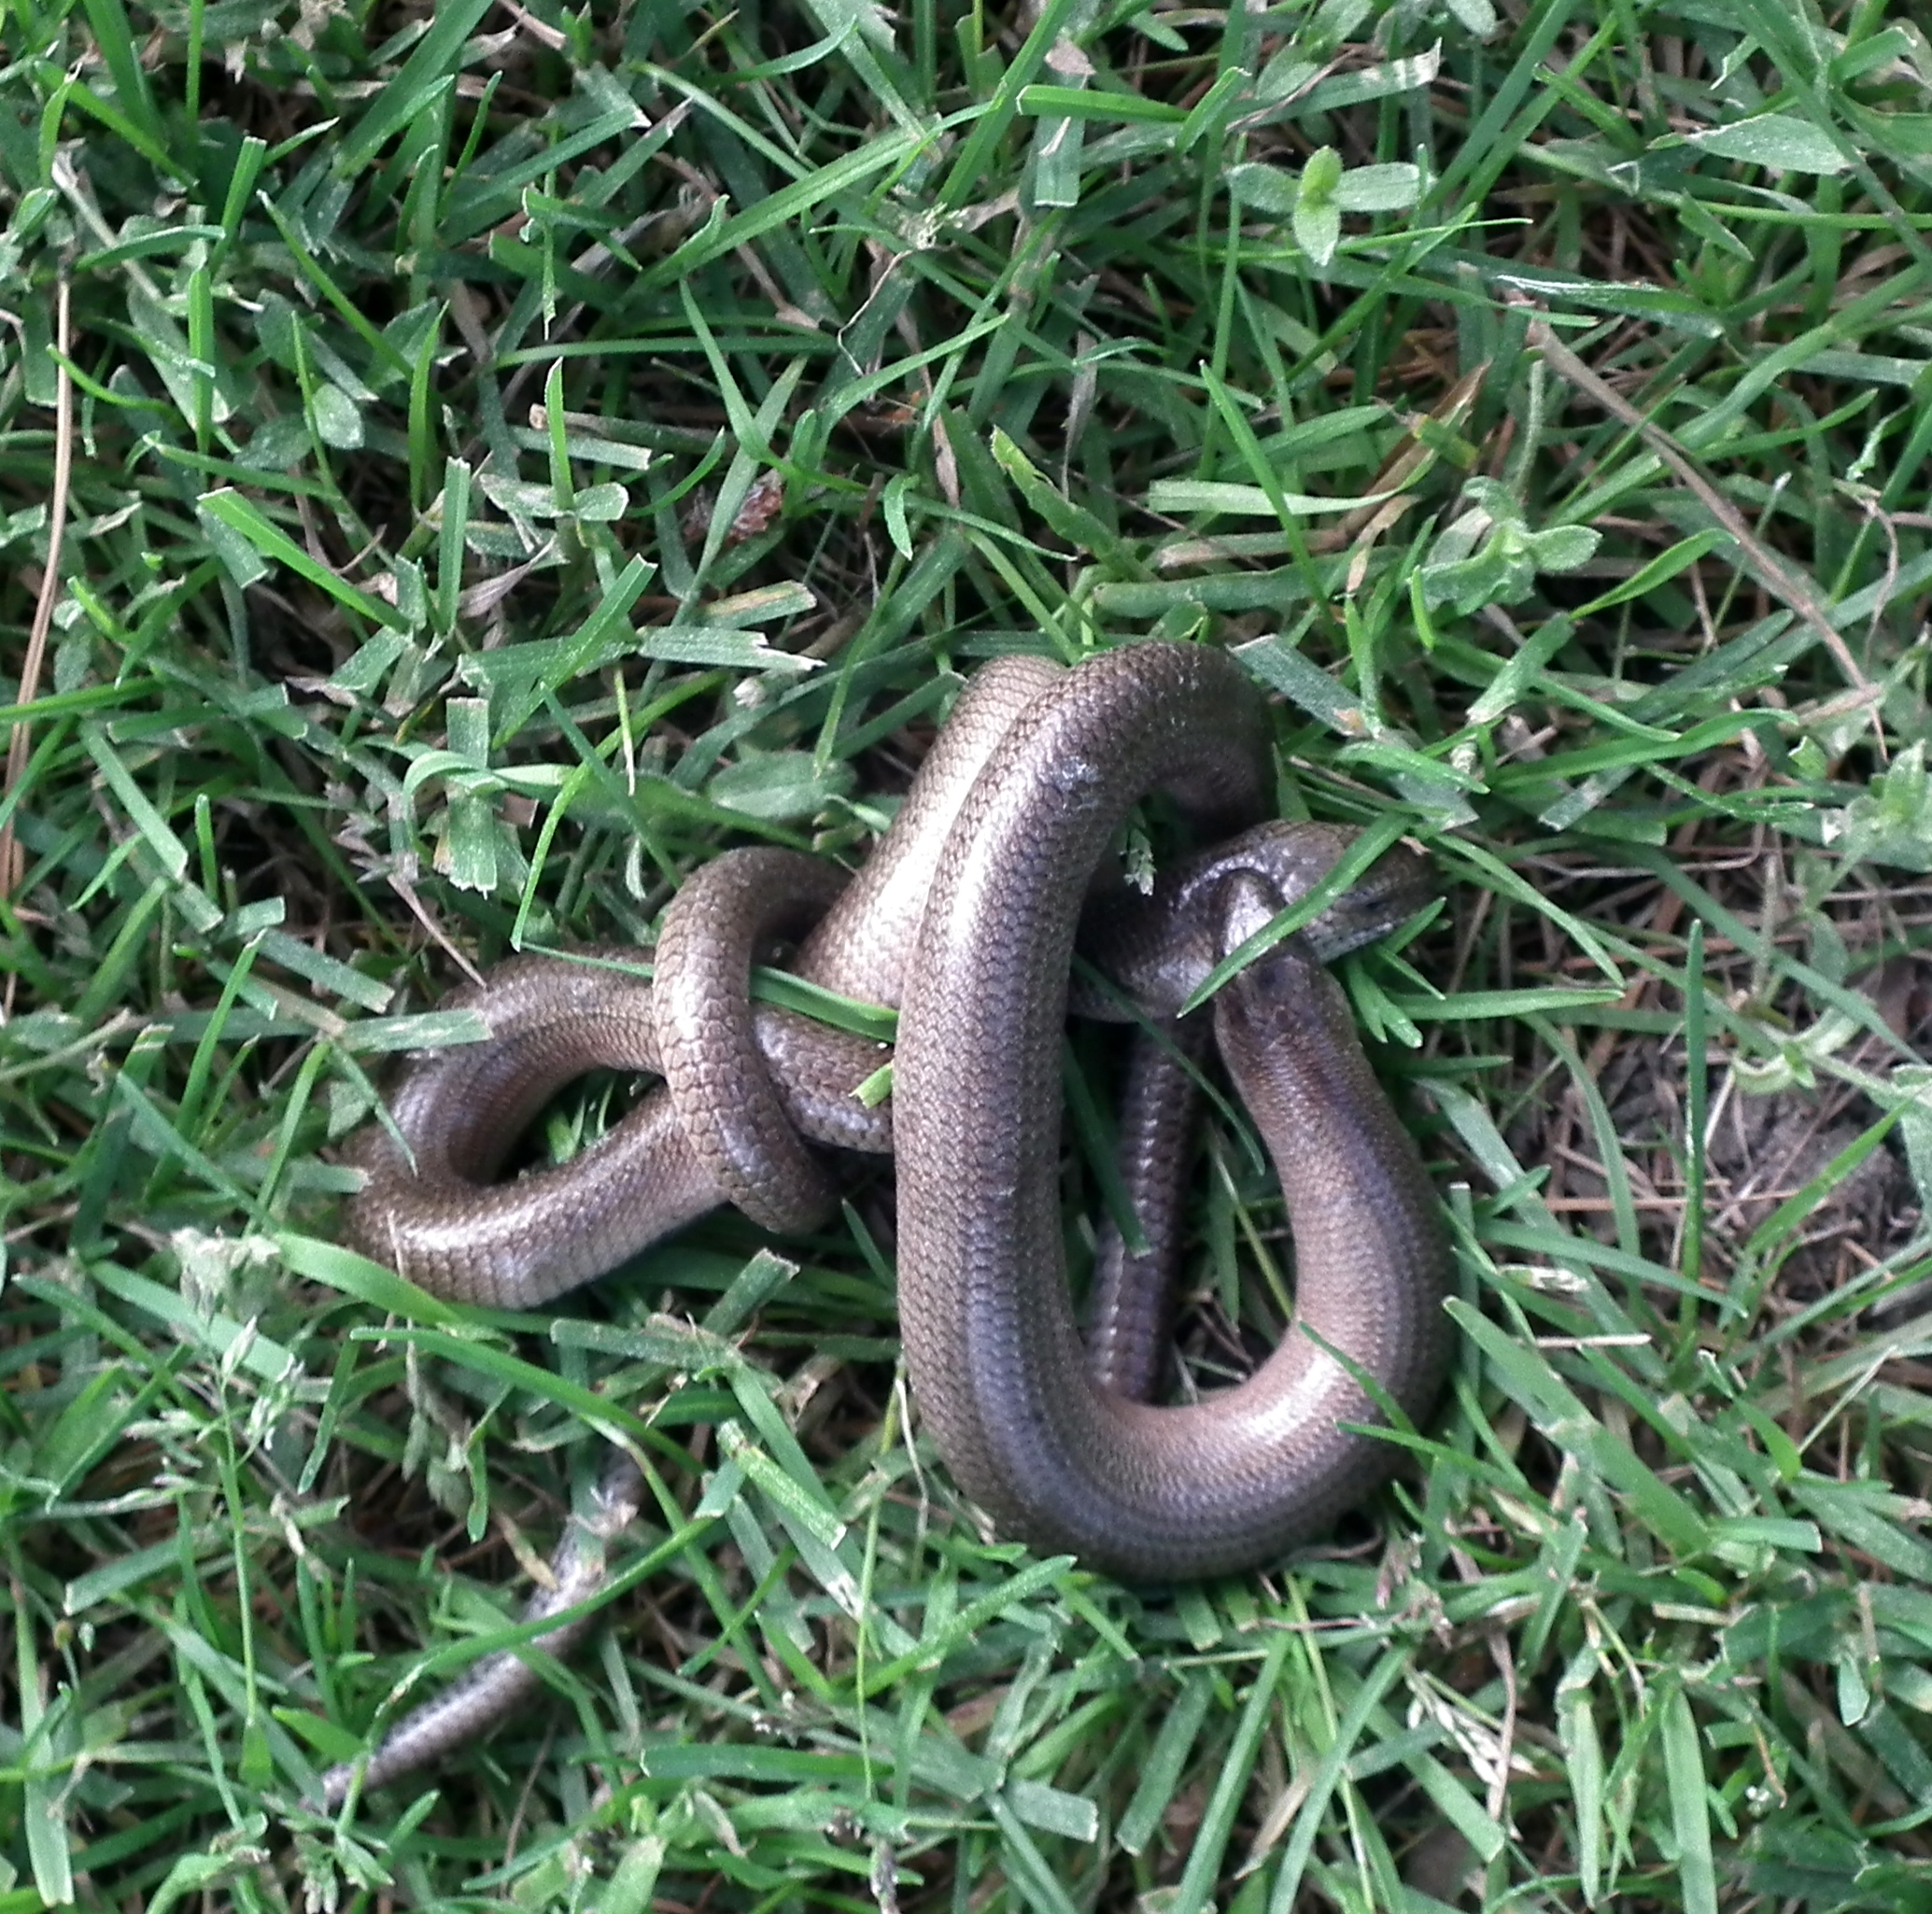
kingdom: Animalia
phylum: Chordata
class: Squamata
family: Anguidae
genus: Anguis
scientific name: Anguis colchica
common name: Slow worm
